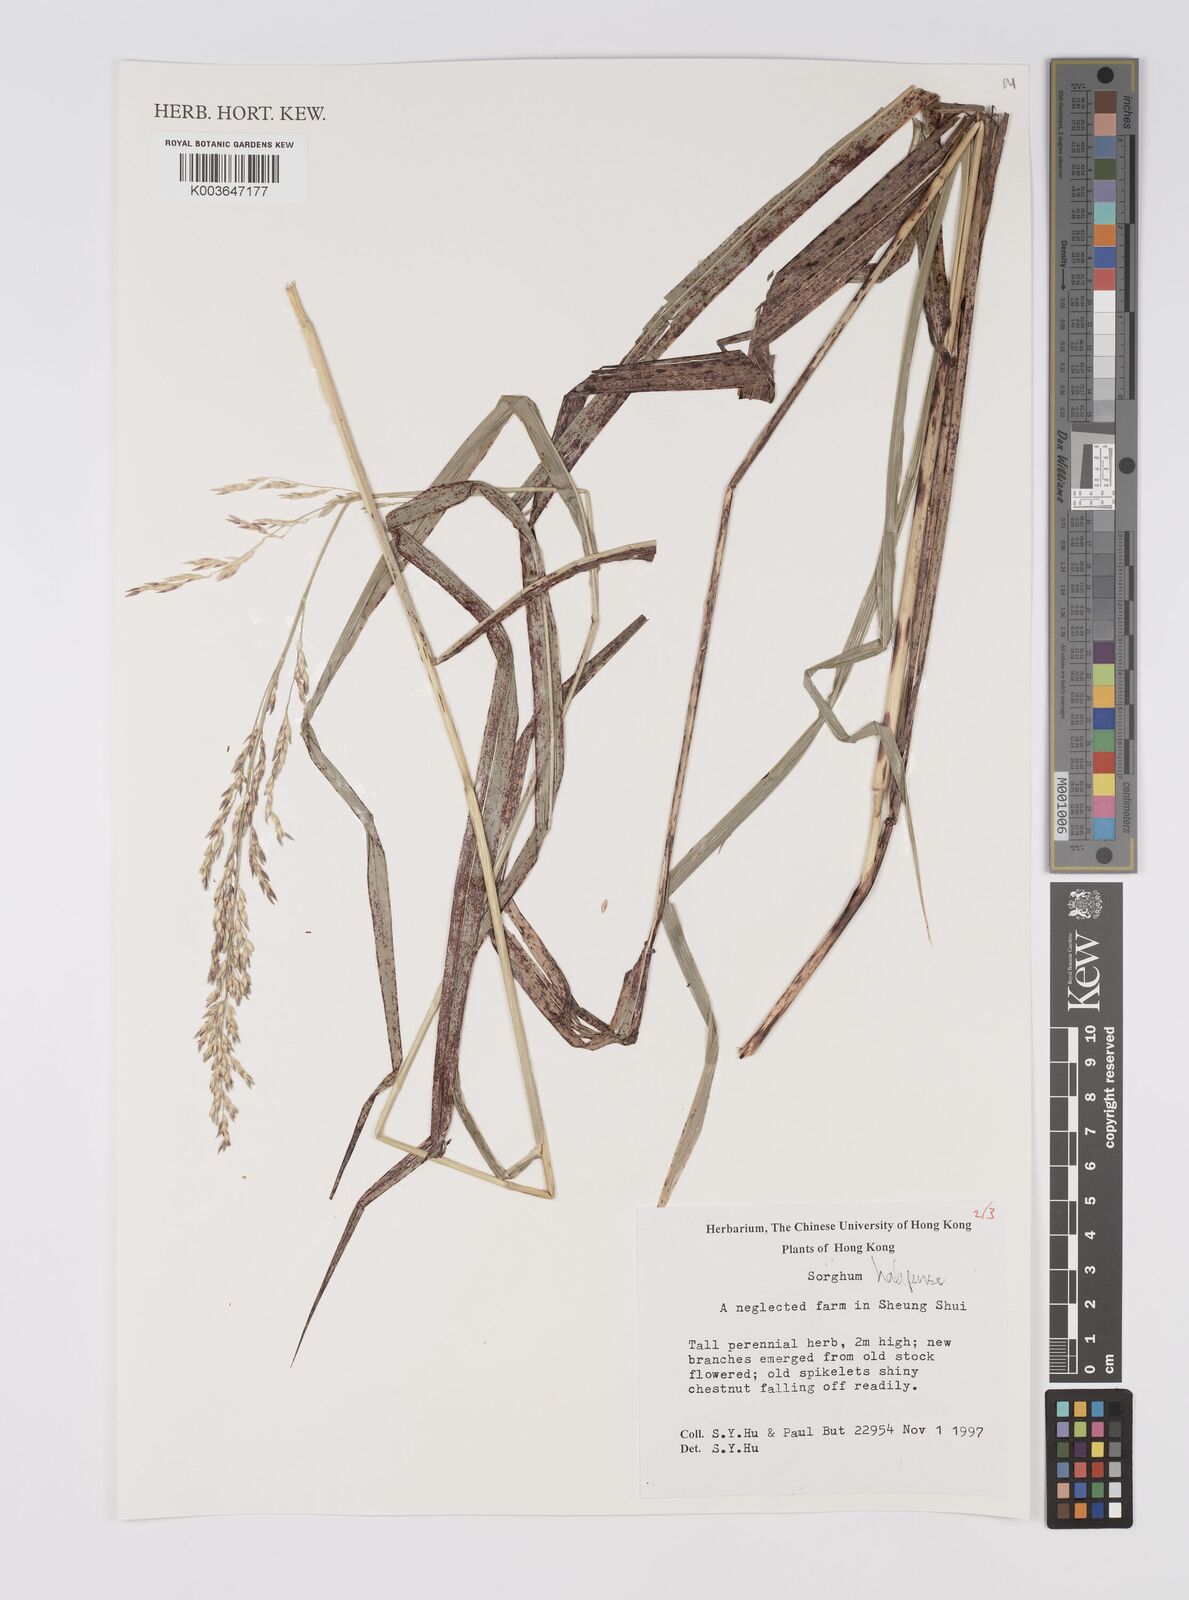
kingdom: Plantae
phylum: Tracheophyta
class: Liliopsida
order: Poales
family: Poaceae
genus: Sorghum
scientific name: Sorghum halepense
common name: Johnson-grass
